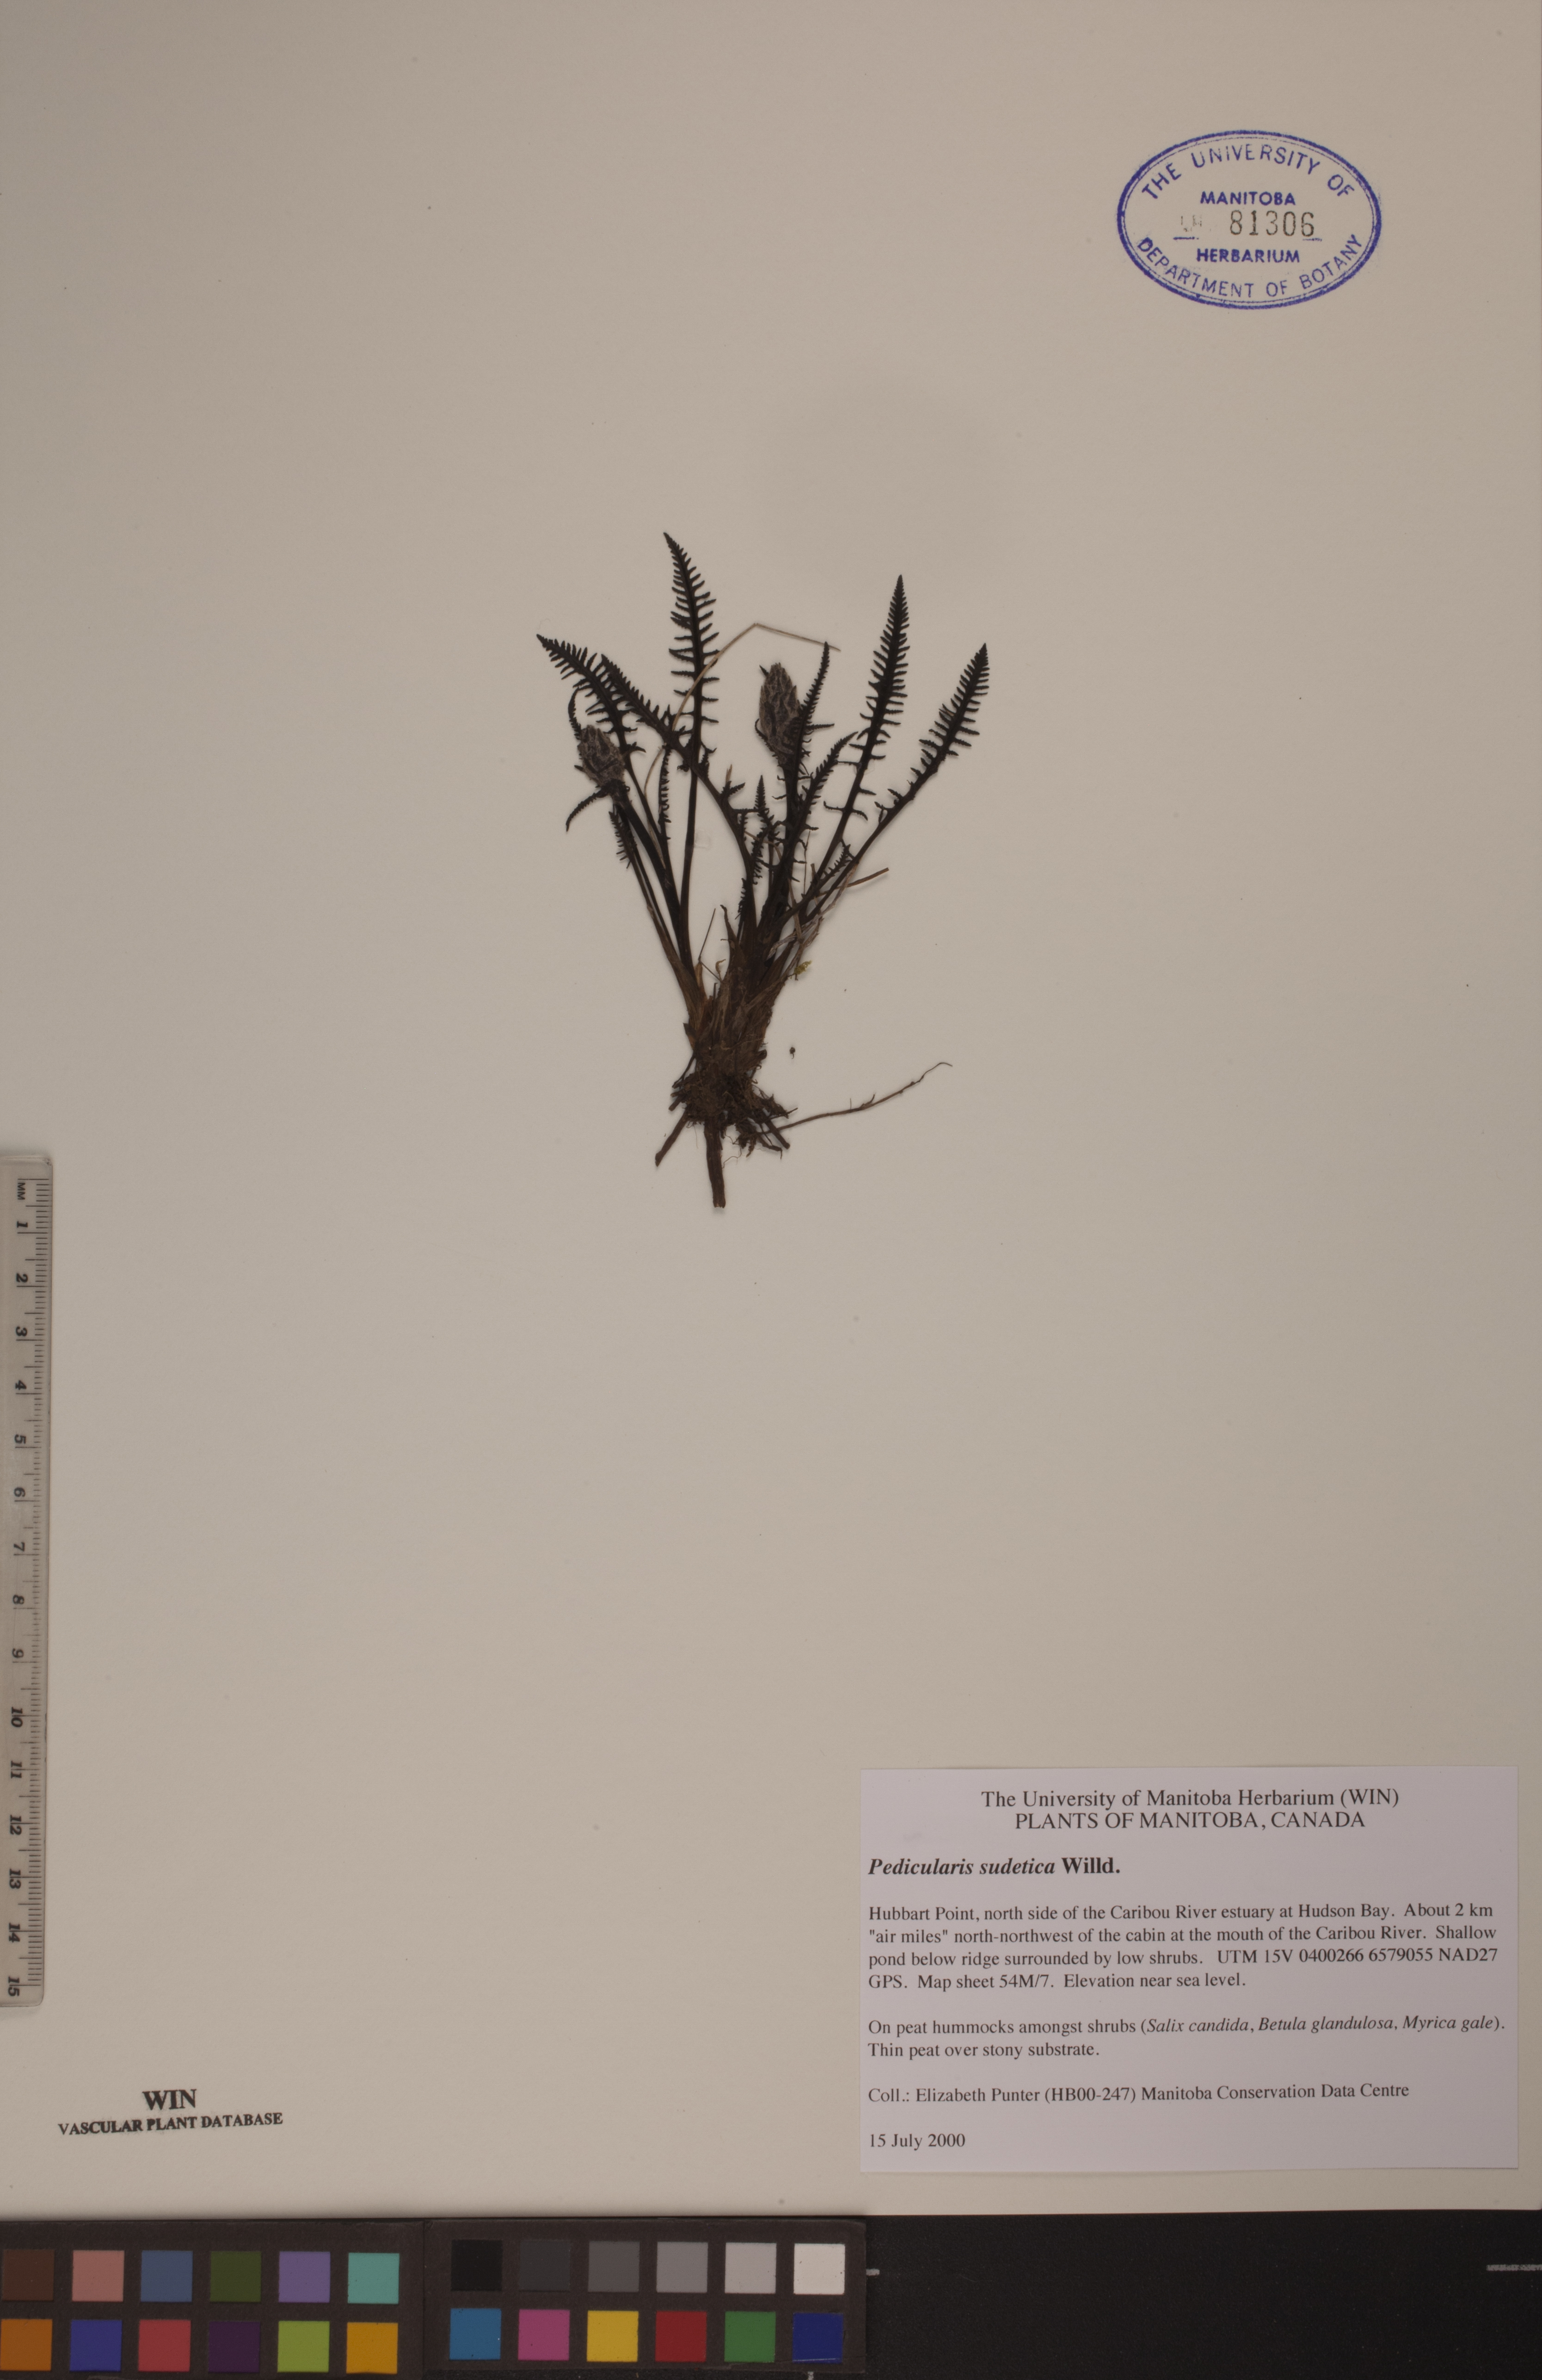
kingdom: Plantae
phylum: Tracheophyta
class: Magnoliopsida
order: Lamiales
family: Orobanchaceae
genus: Pedicularis
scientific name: Pedicularis sudetica
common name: Sudeten lousewort
